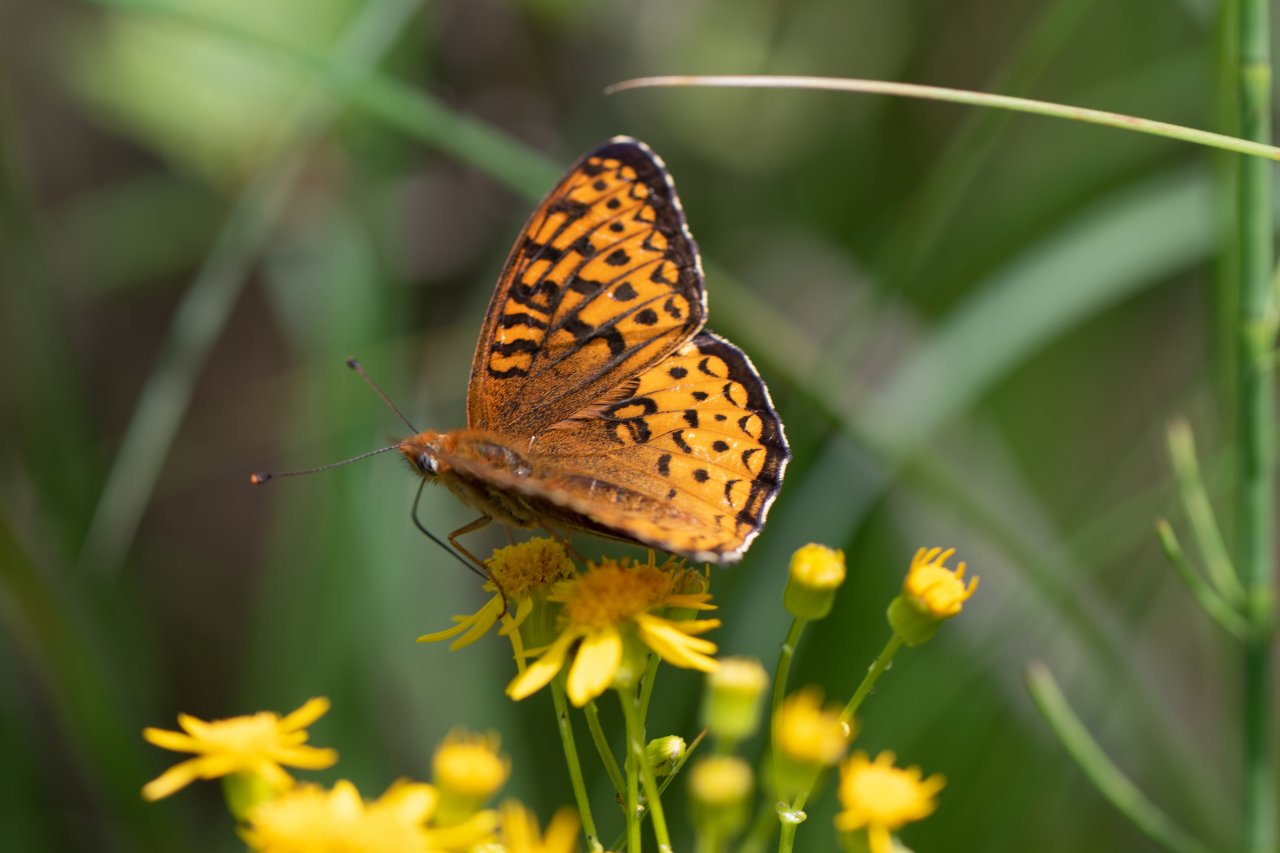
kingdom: Animalia
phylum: Arthropoda
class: Insecta
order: Lepidoptera
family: Nymphalidae
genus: Speyeria
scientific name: Speyeria atlantis
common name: Atlantis Fritillary
